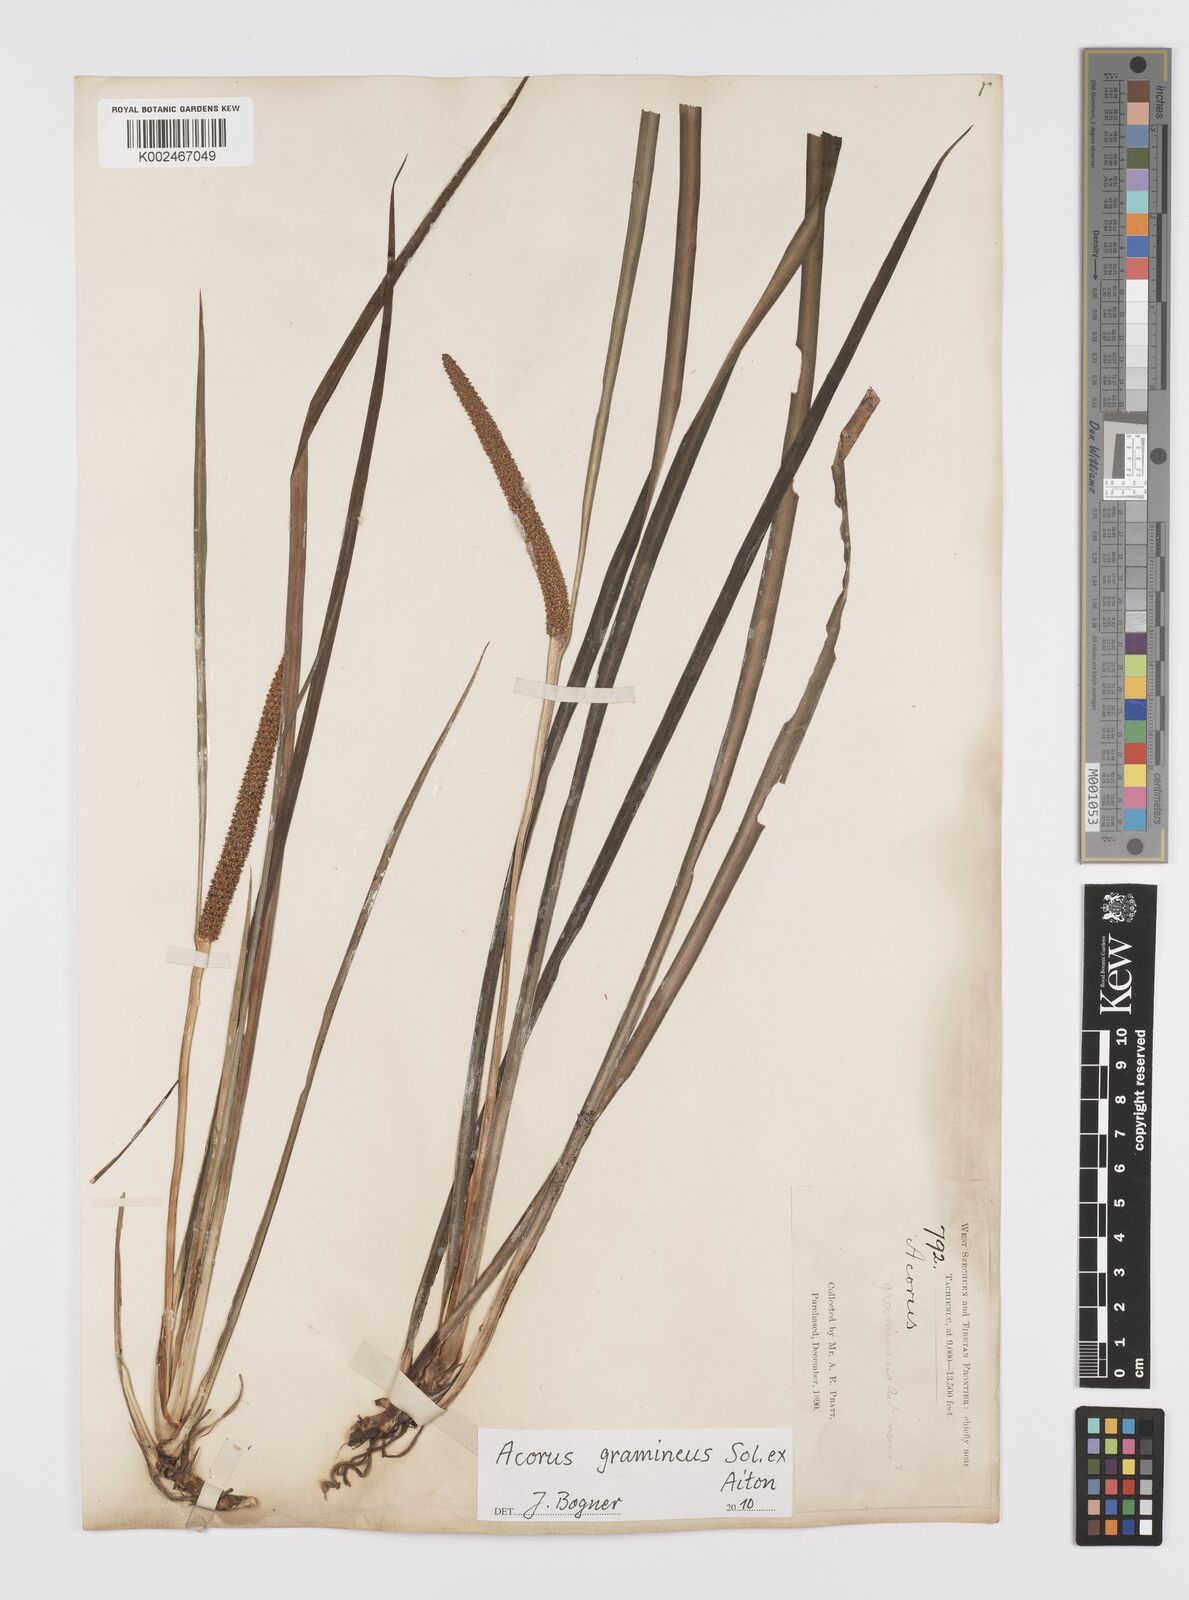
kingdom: Plantae
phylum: Tracheophyta
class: Liliopsida
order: Acorales
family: Acoraceae
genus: Acorus
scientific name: Acorus gramineus
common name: Slender sweet-flag
